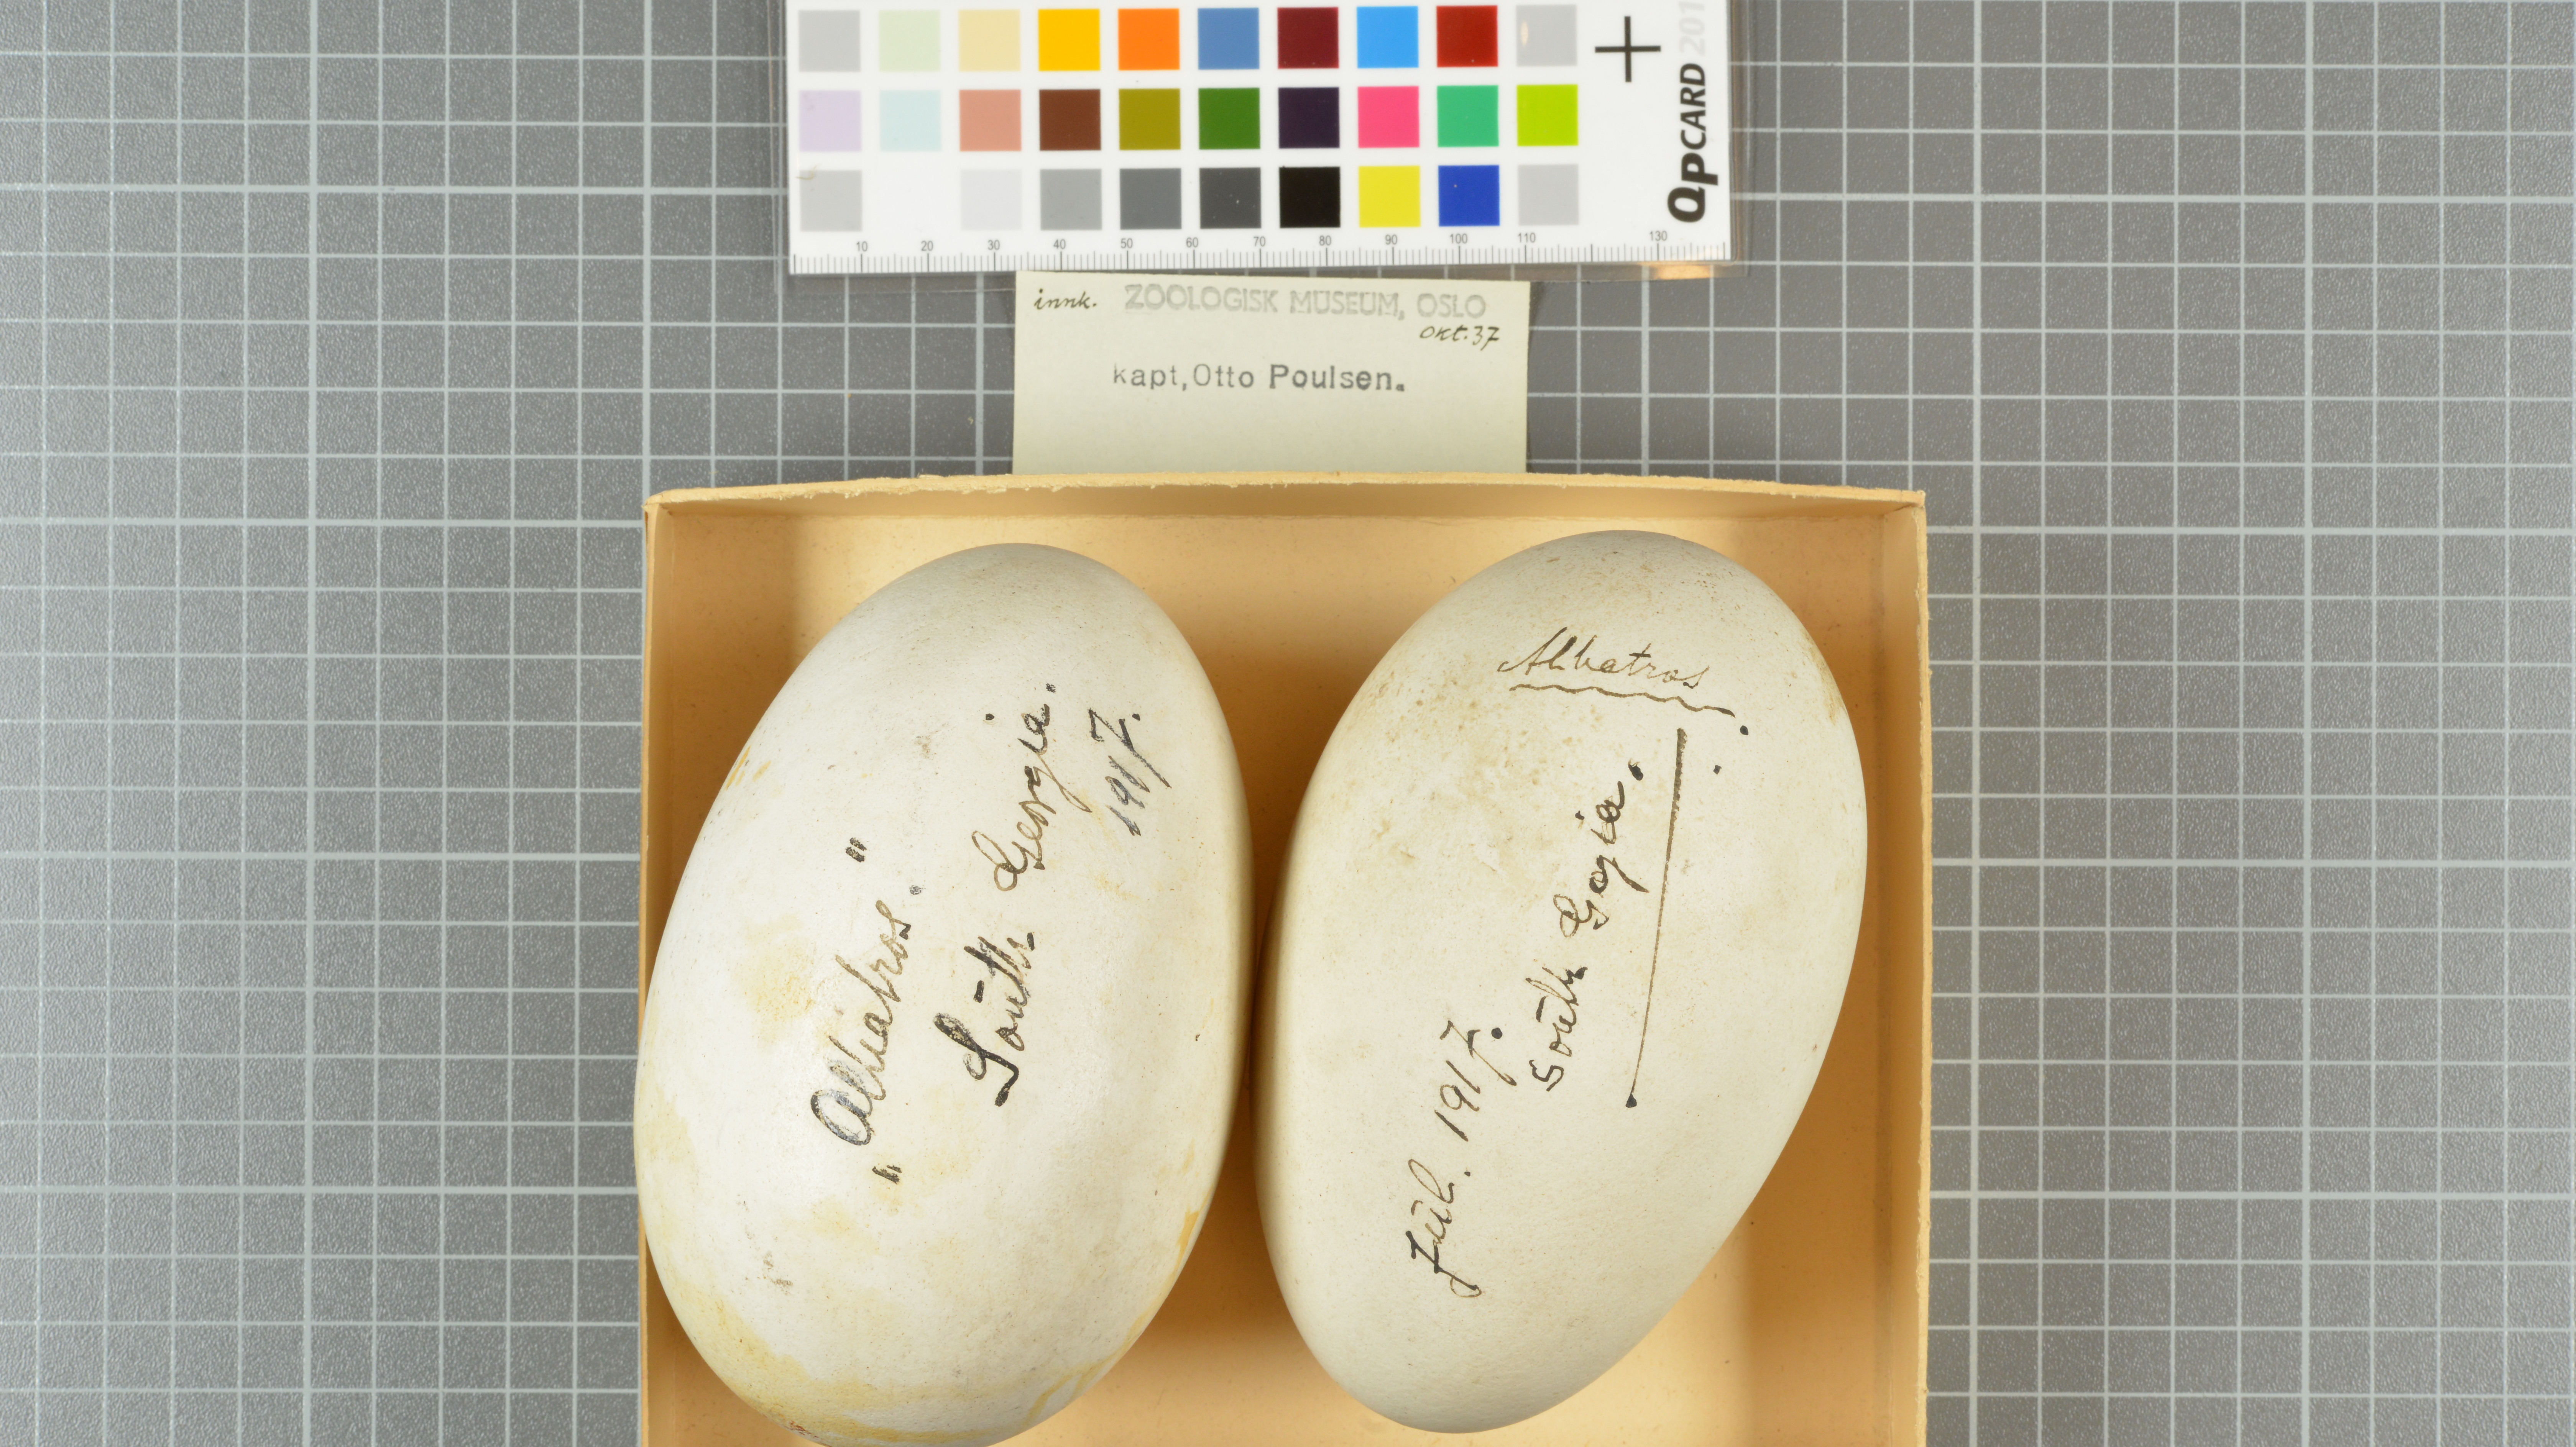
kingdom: Animalia
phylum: Chordata
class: Aves
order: Procellariiformes
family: Diomedeidae
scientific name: Diomedeidae
